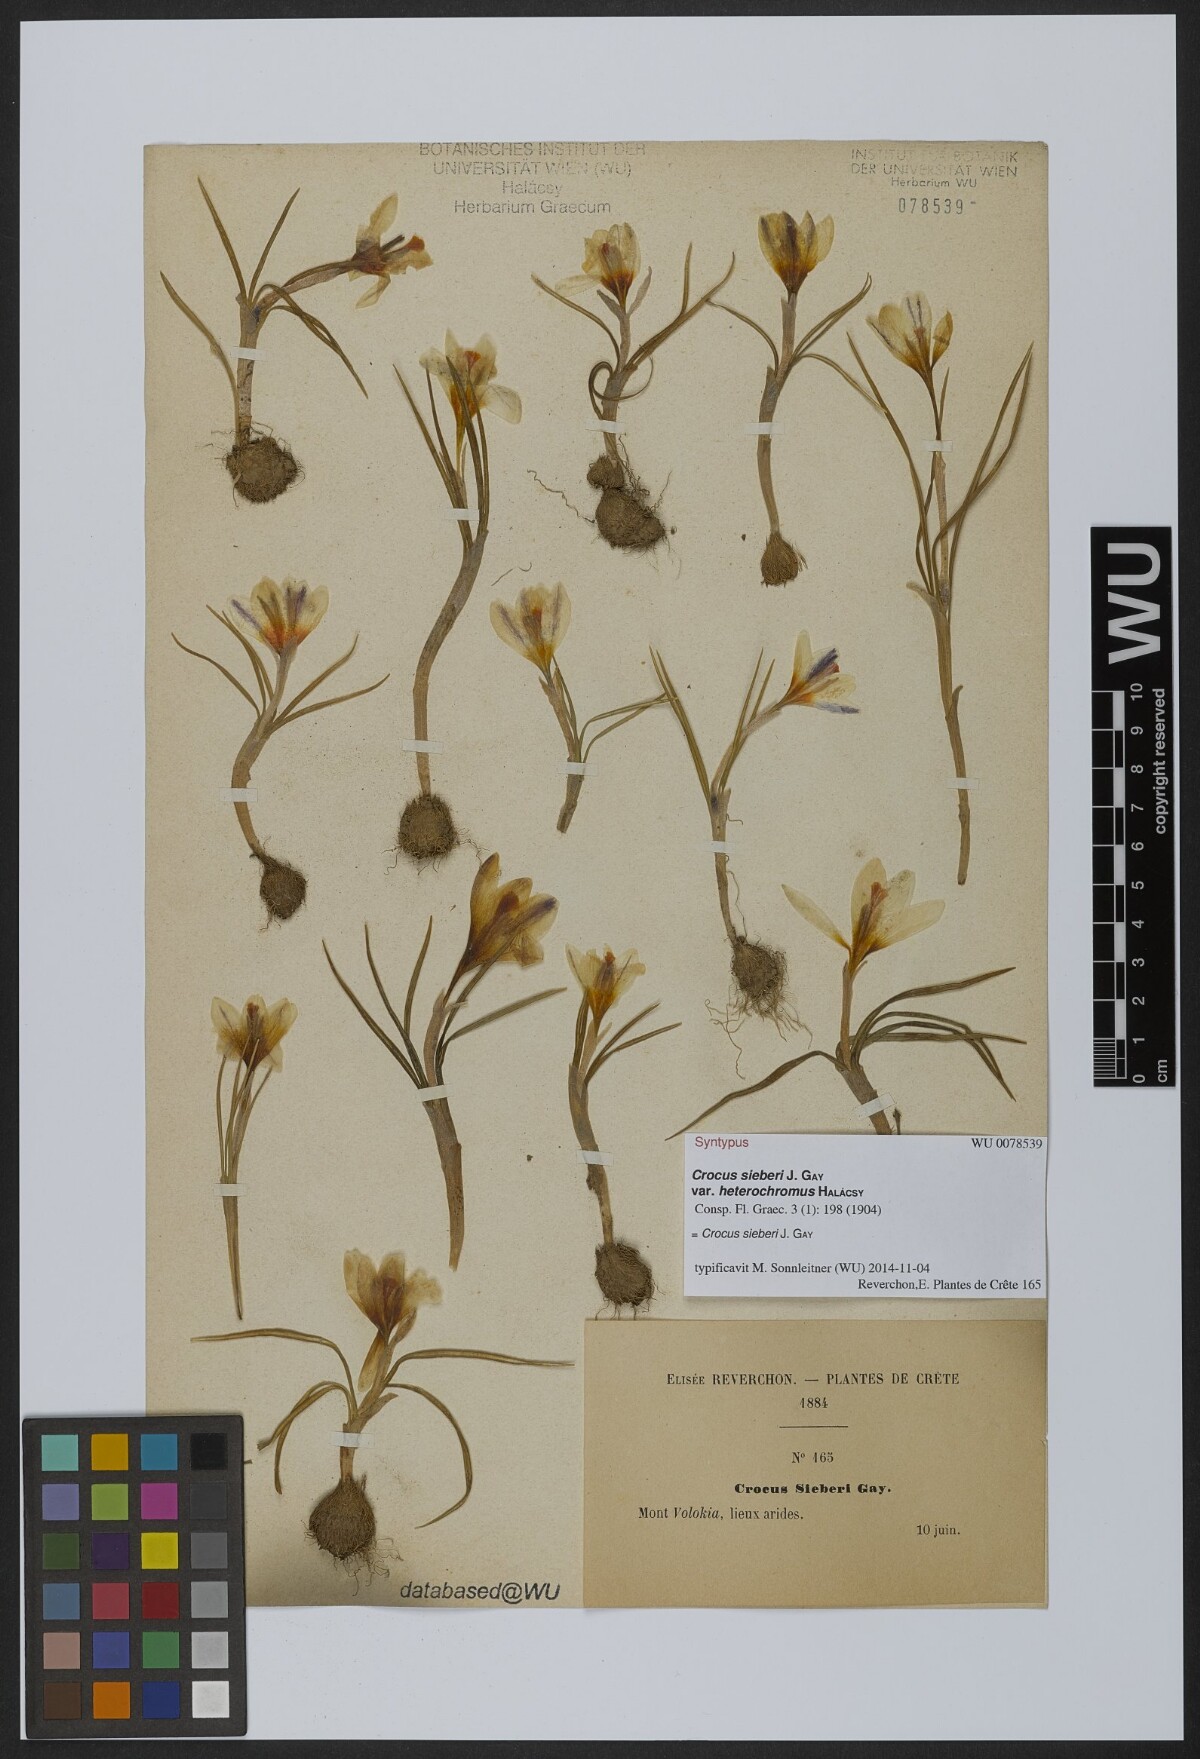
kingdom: Plantae
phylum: Tracheophyta
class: Liliopsida
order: Asparagales
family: Iridaceae
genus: Crocus
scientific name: Crocus sieberi
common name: Sieber's crocus
